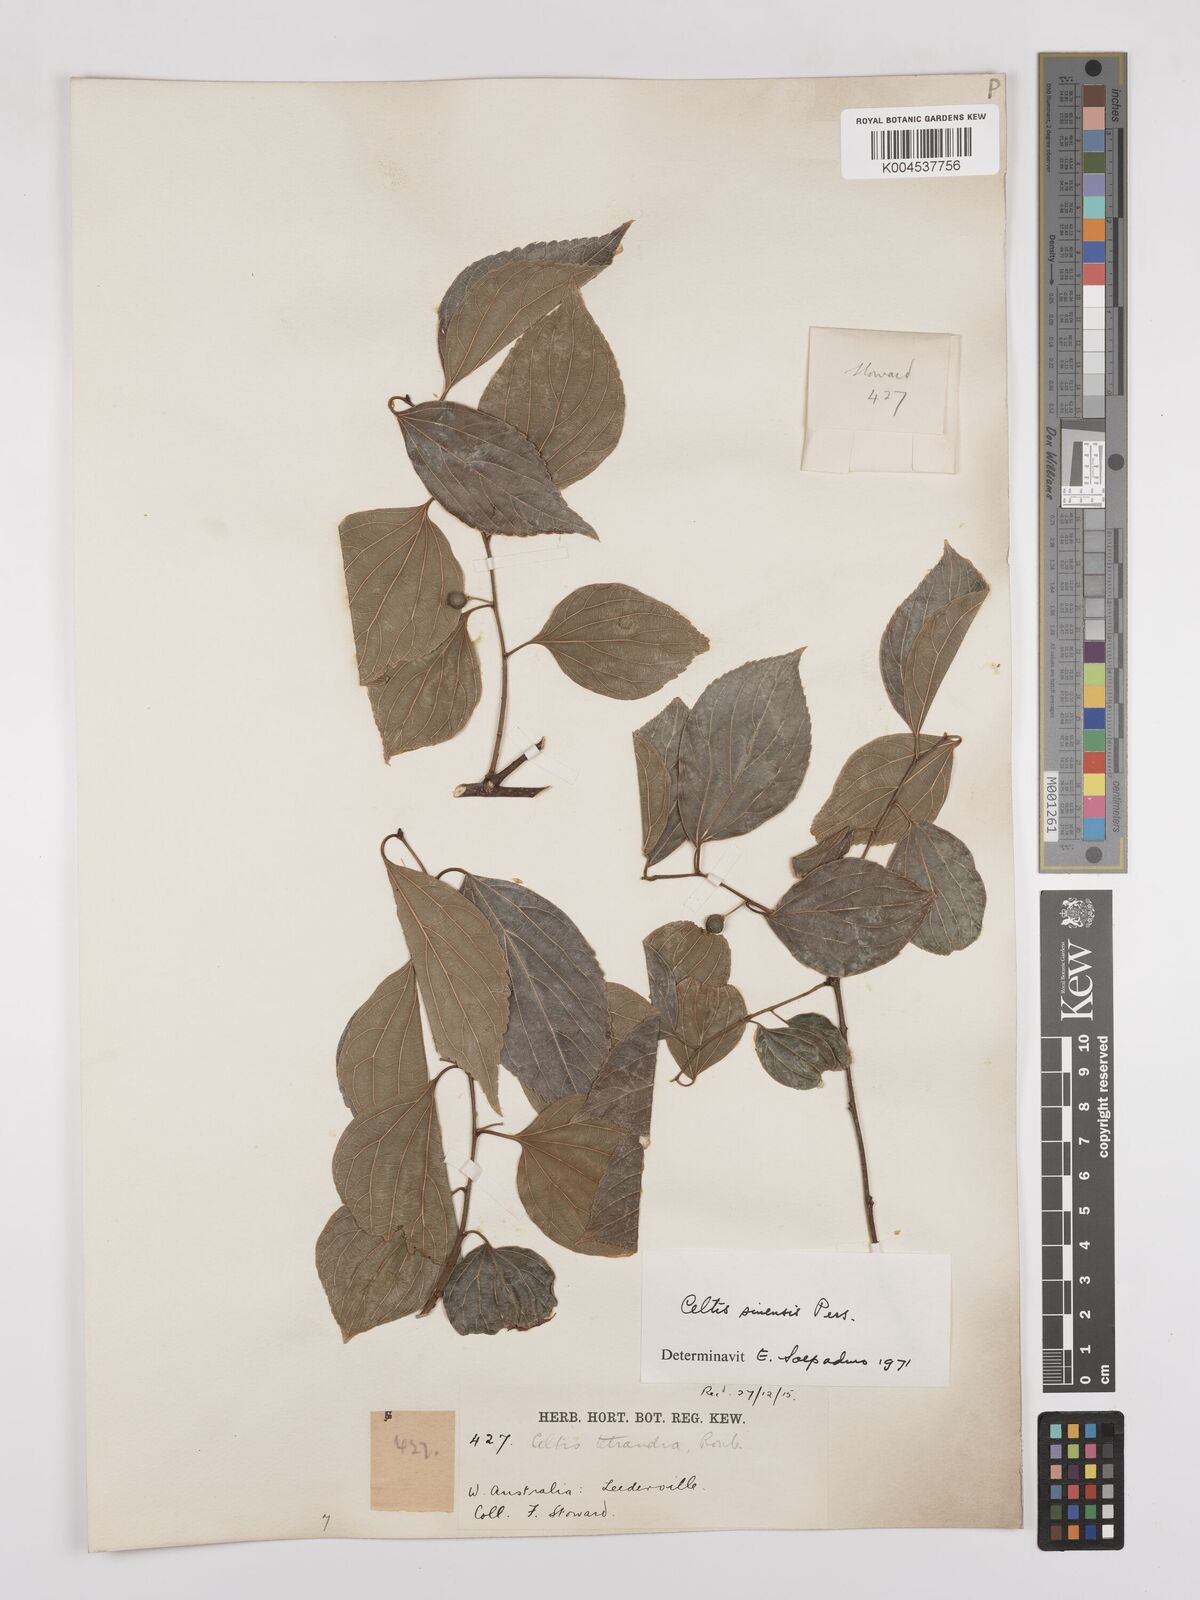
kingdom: Plantae
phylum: Tracheophyta
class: Magnoliopsida
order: Rosales
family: Cannabaceae
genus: Celtis
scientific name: Celtis
